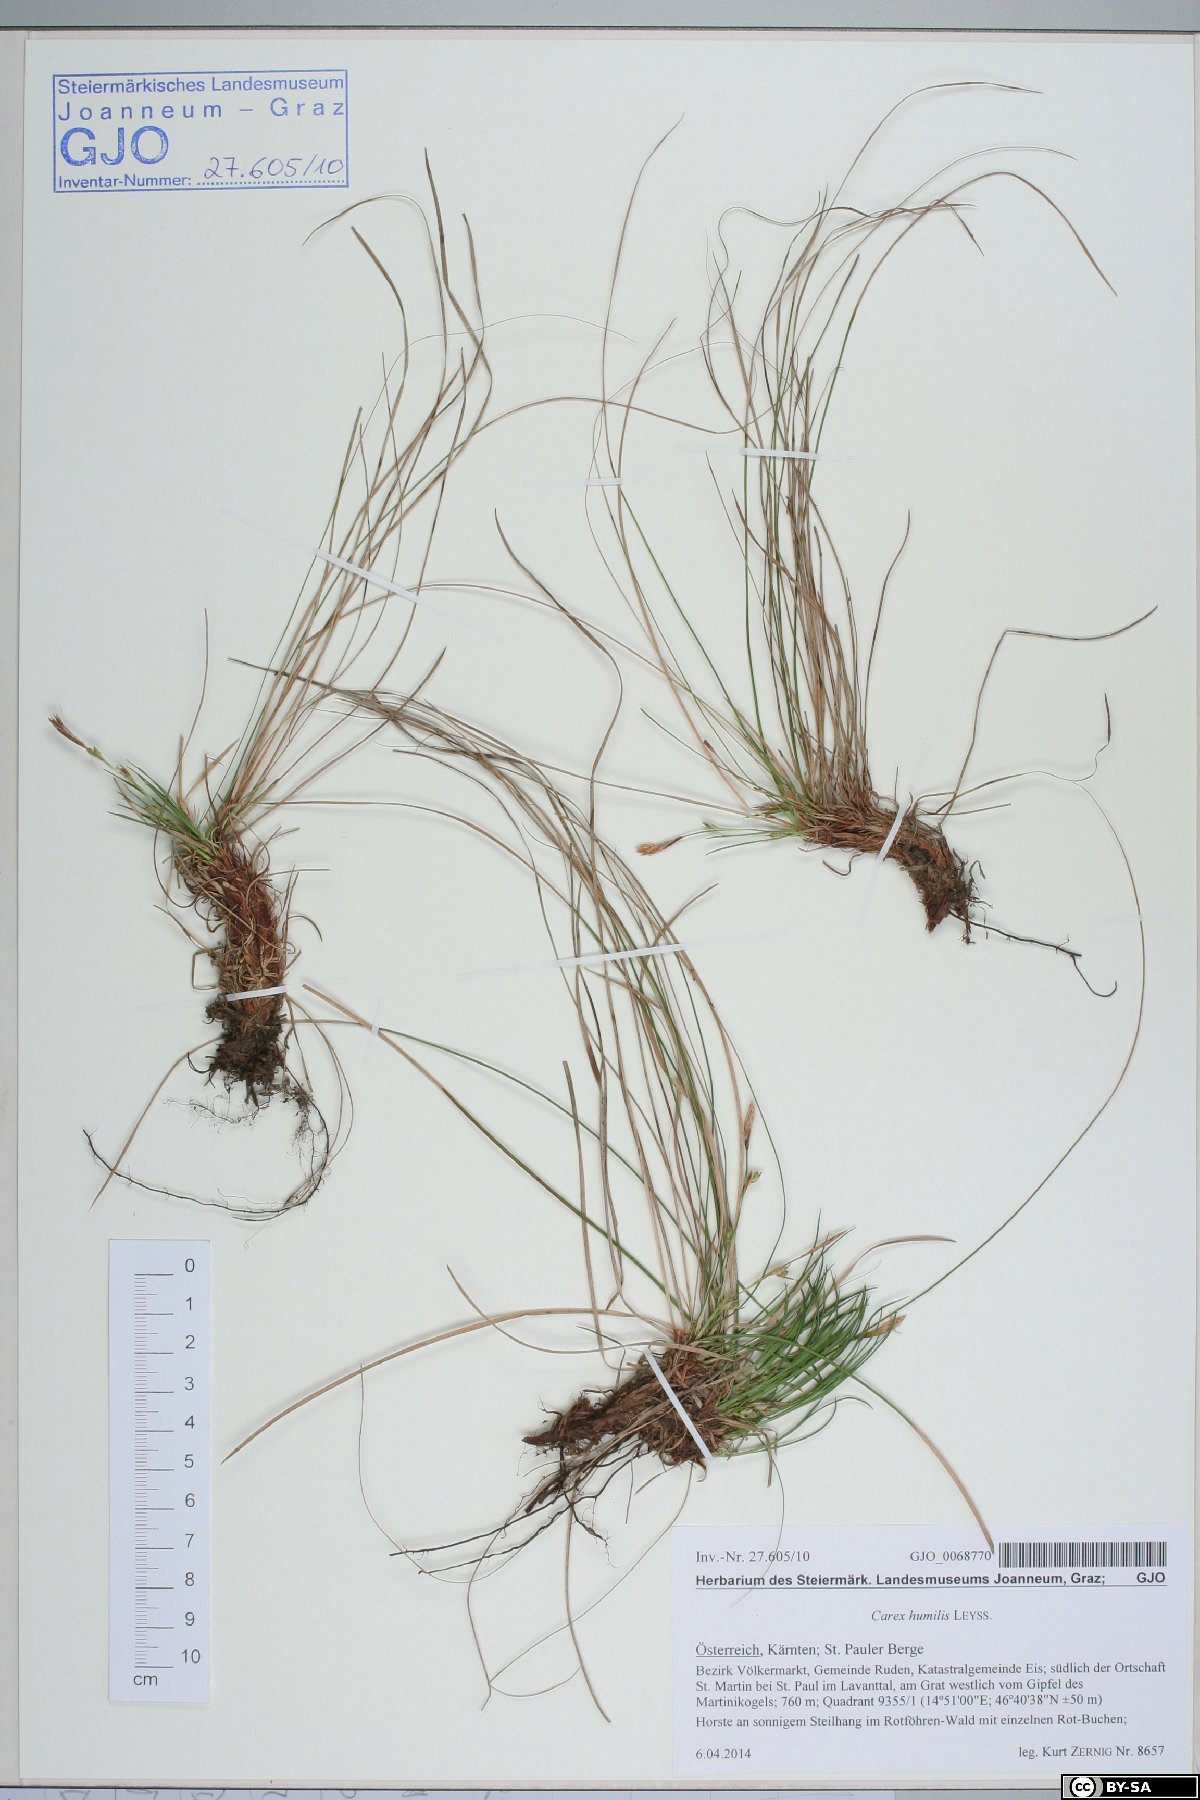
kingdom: Plantae
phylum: Tracheophyta
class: Liliopsida
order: Poales
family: Cyperaceae
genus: Carex
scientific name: Carex humilis
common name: Dwarf sedge
